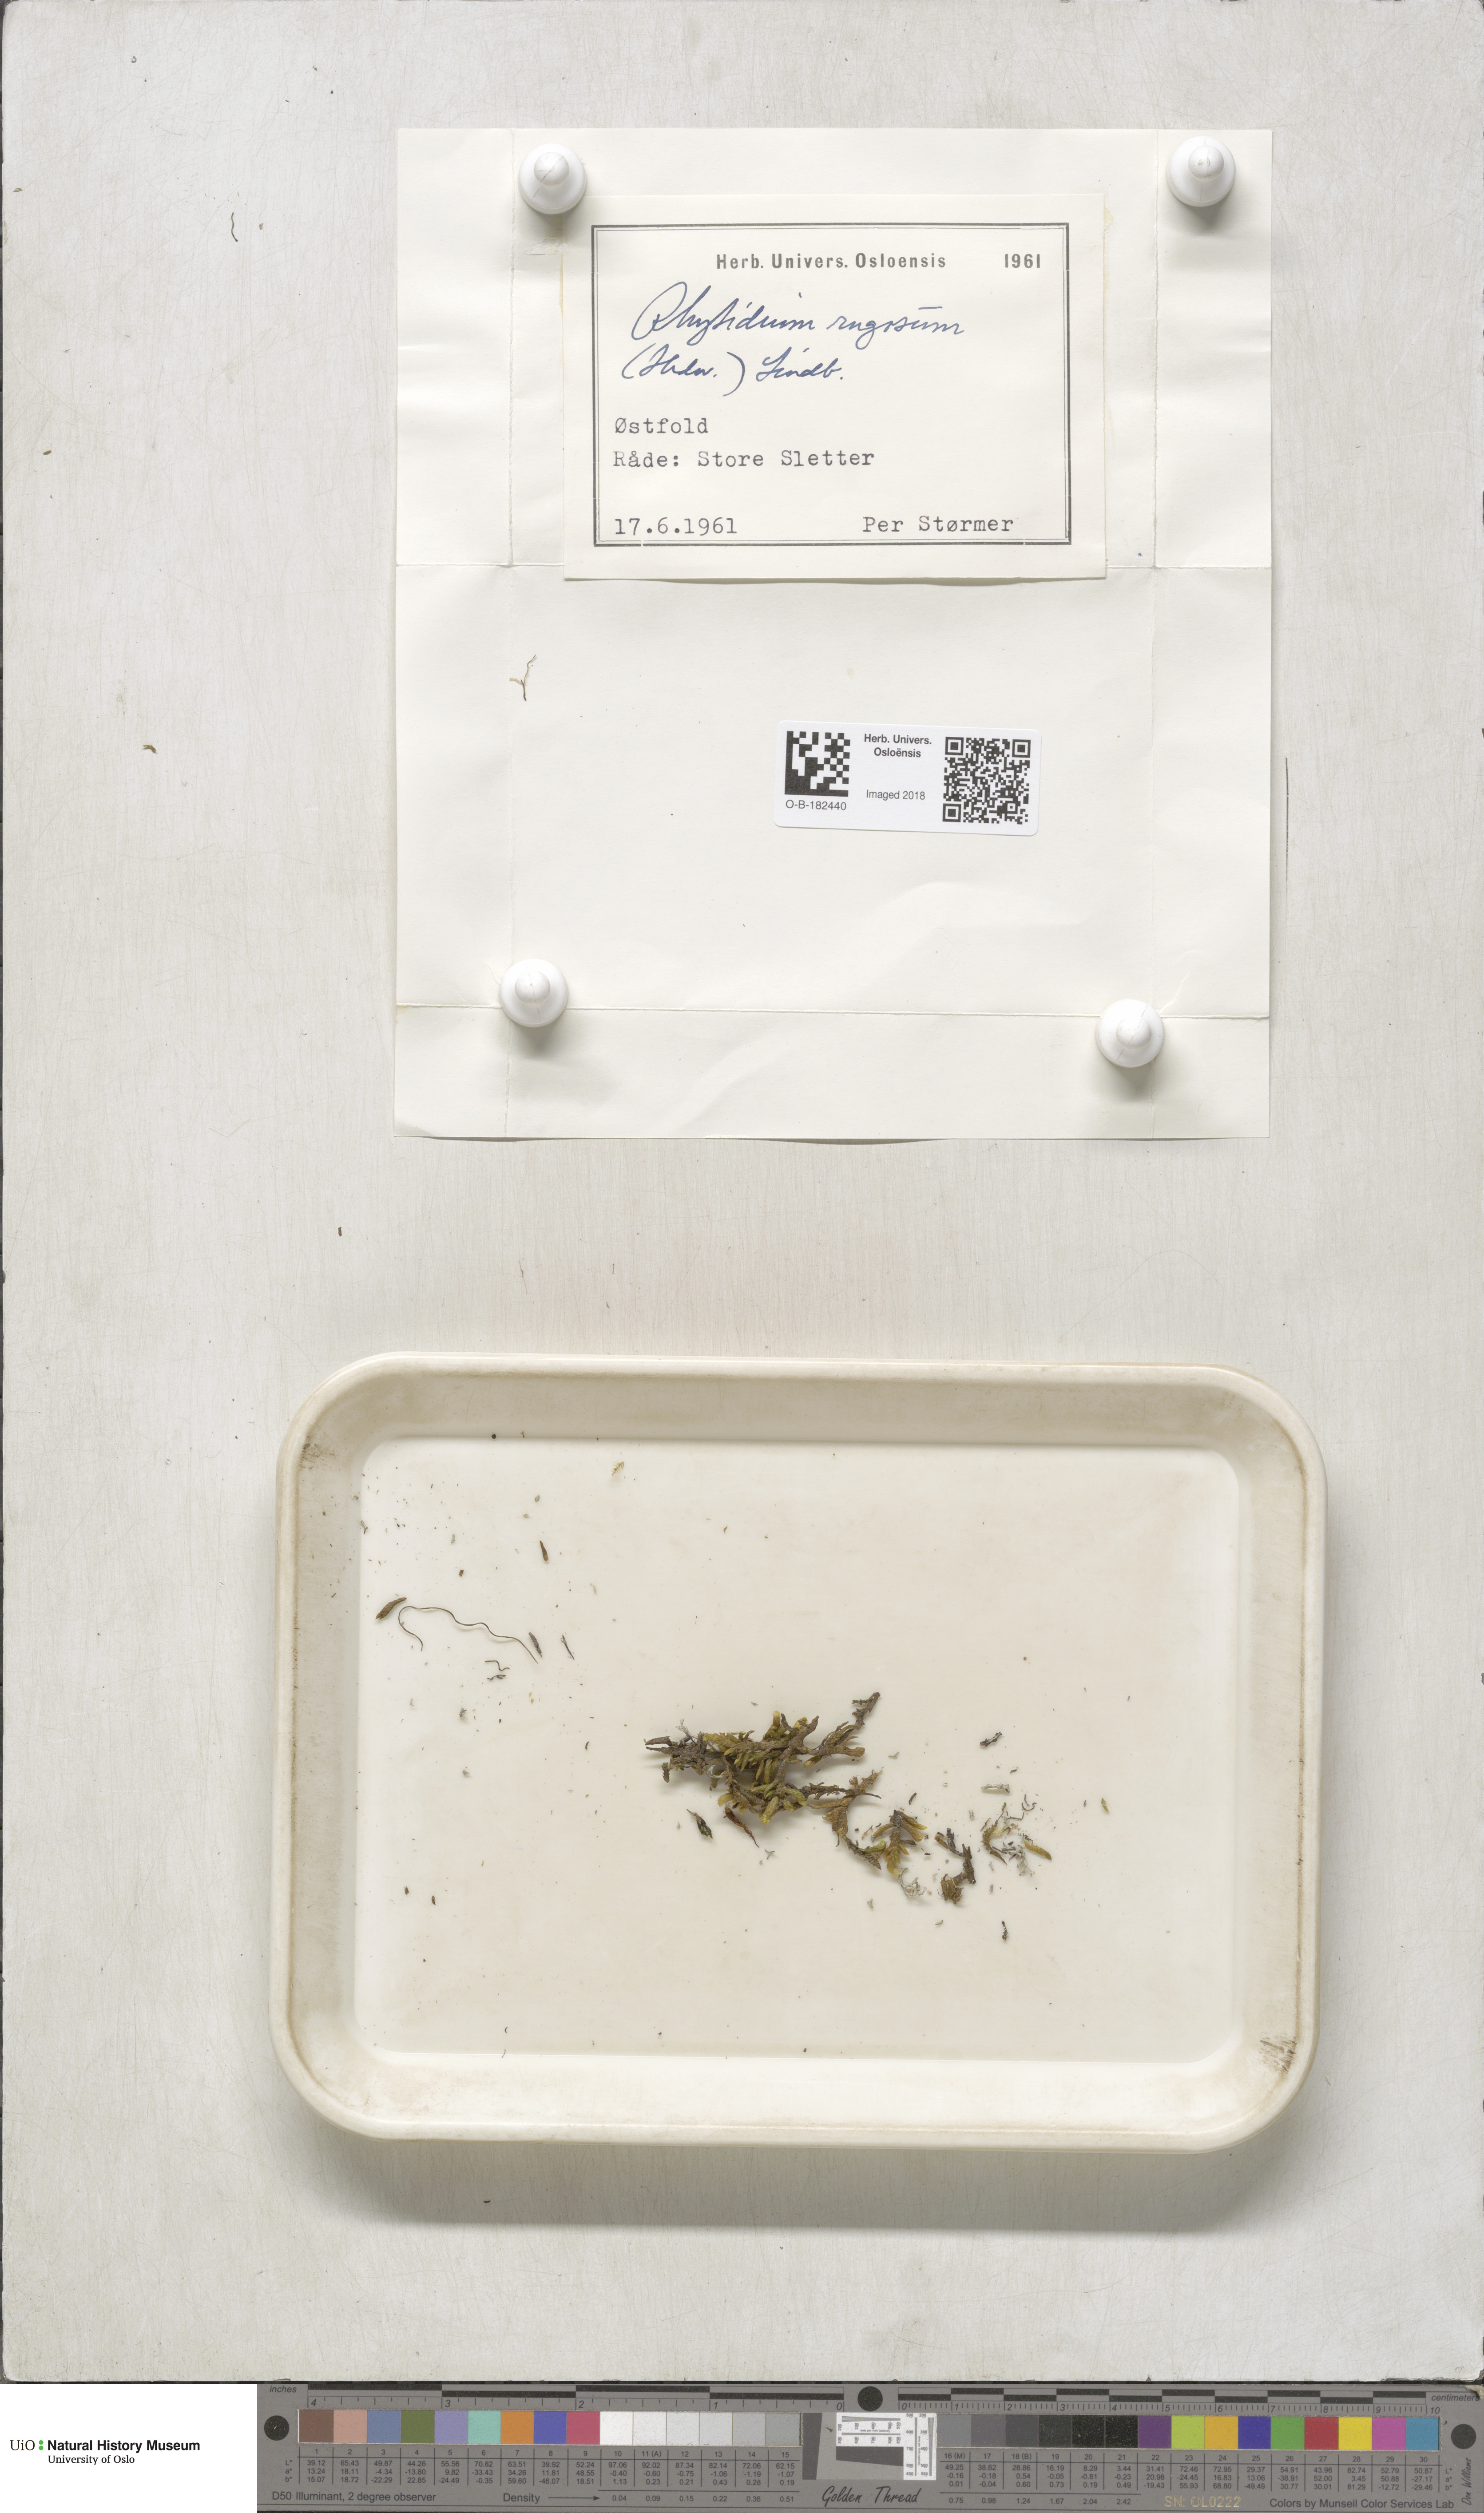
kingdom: Plantae
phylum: Bryophyta
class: Bryopsida
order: Hypnales
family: Rhytidiaceae
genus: Rhytidium
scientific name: Rhytidium rugosum
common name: Wrinkle-leaved moss
